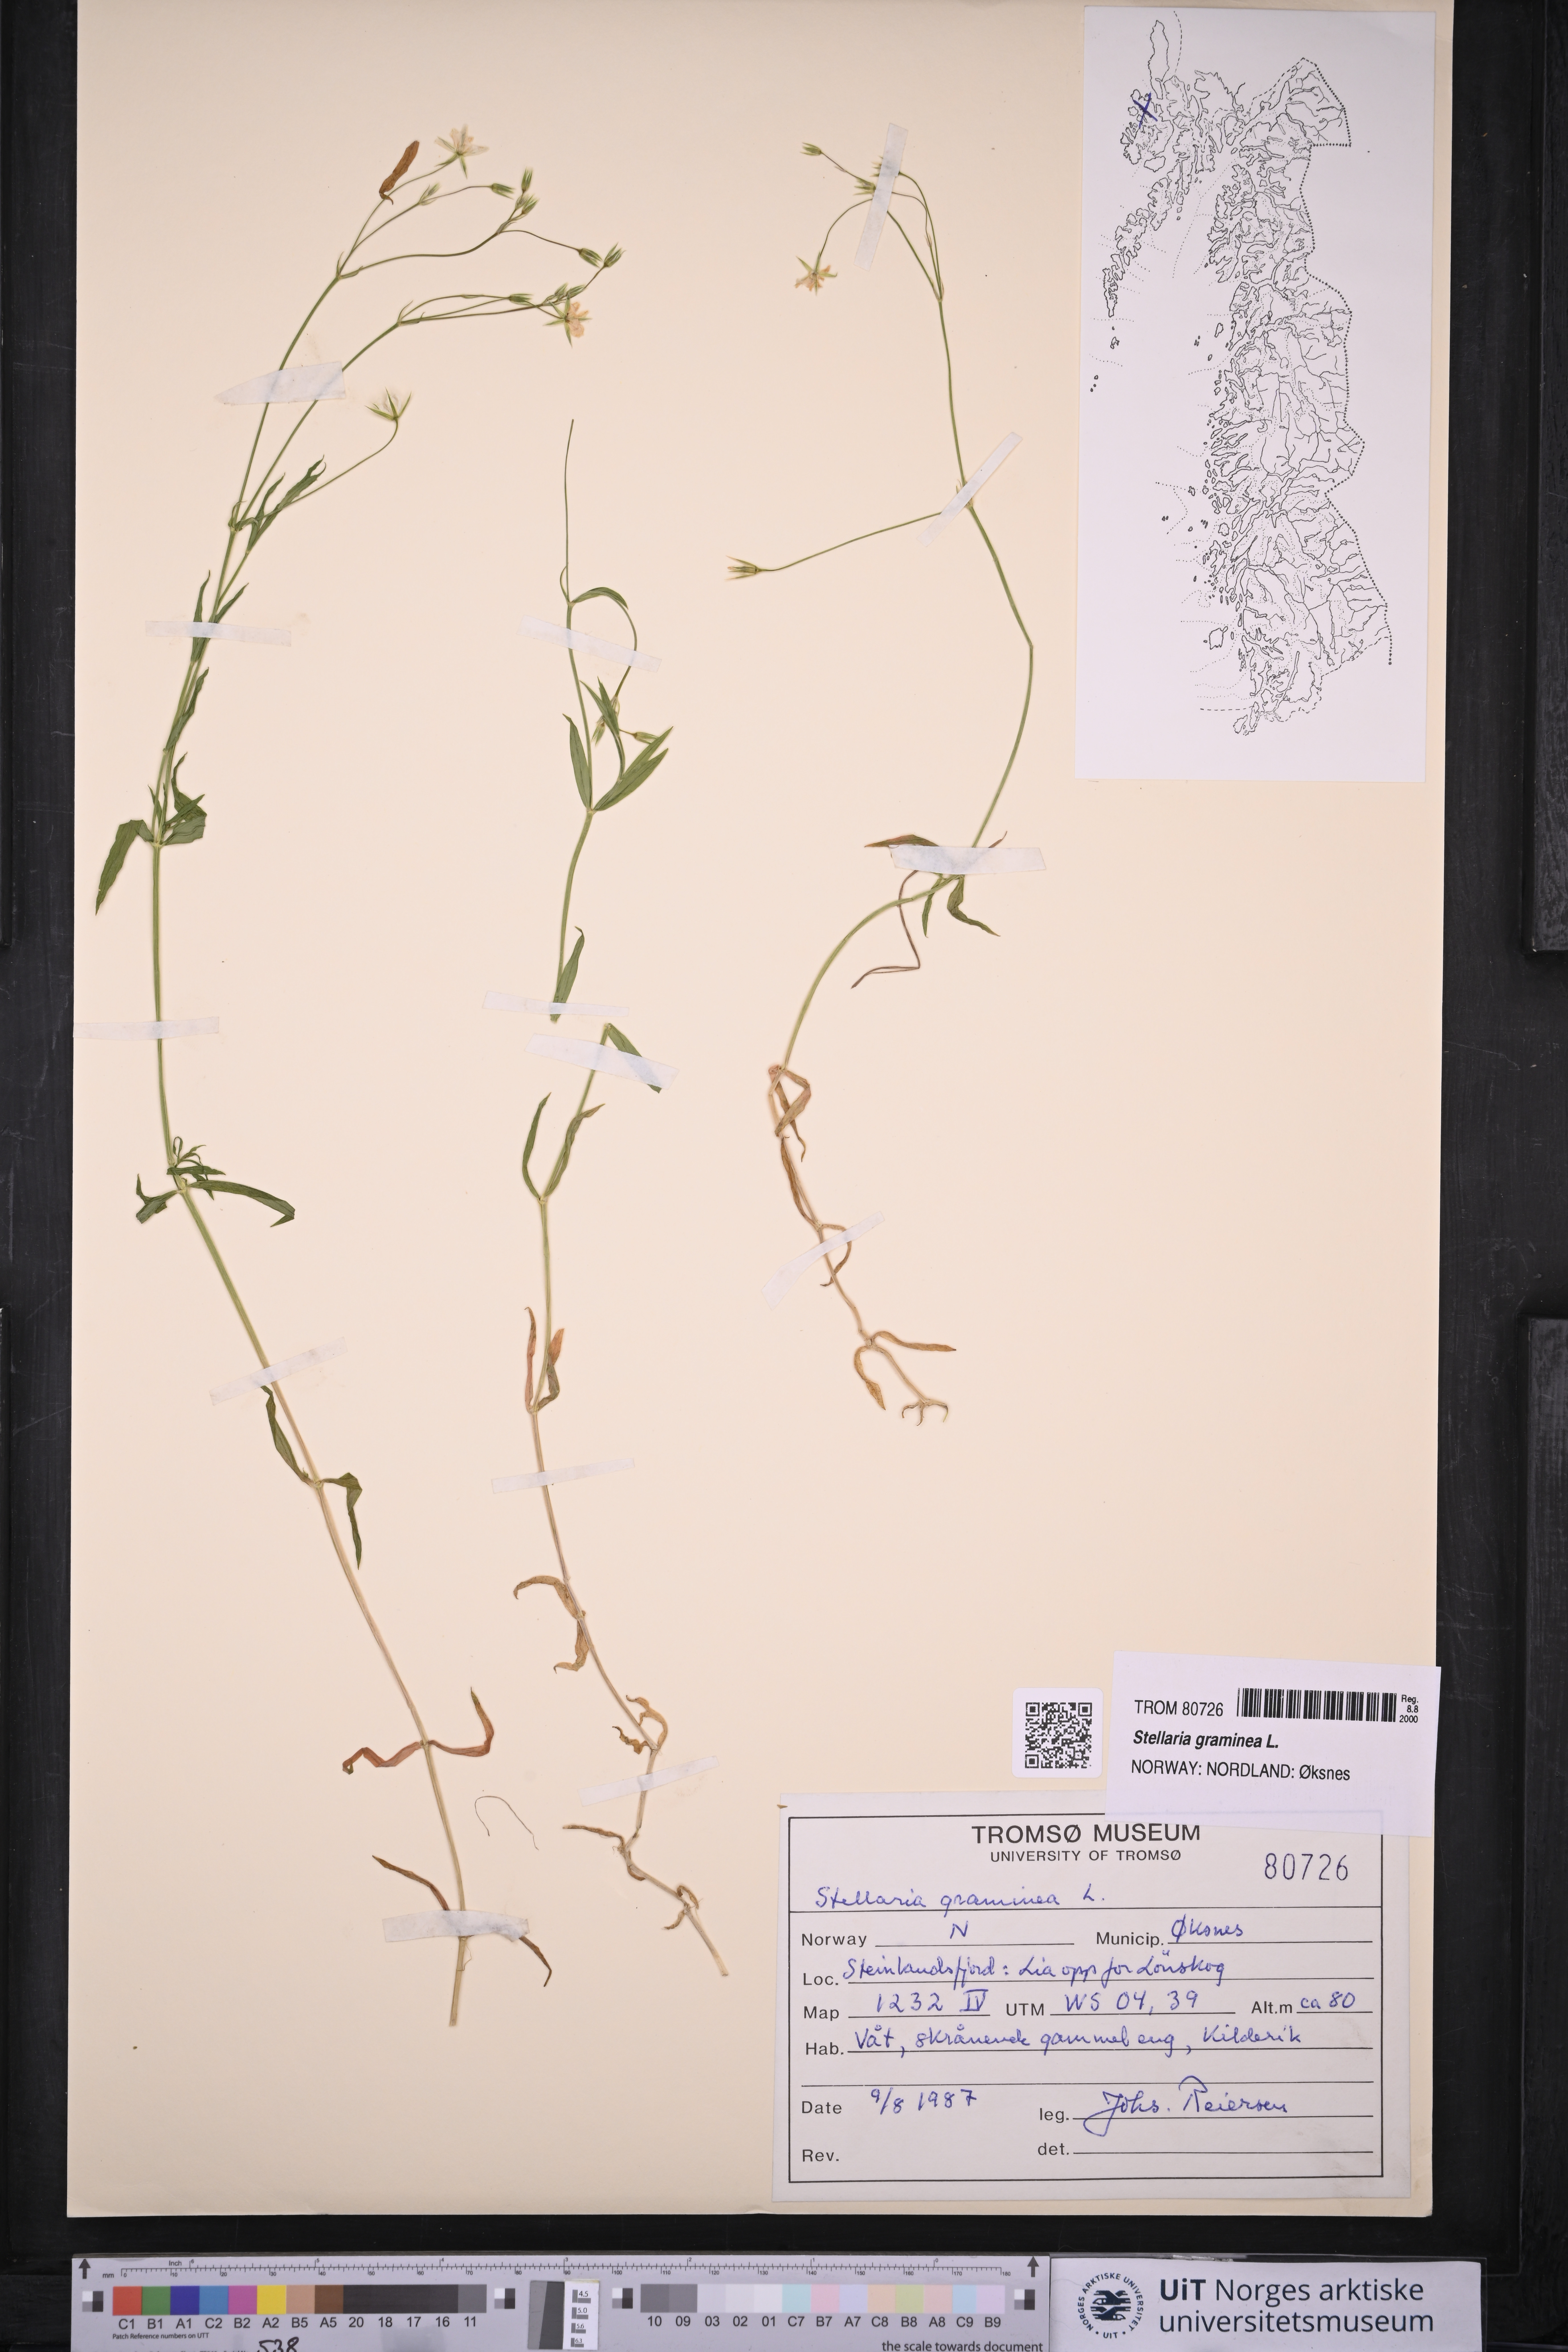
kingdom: Plantae
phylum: Tracheophyta
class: Magnoliopsida
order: Caryophyllales
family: Caryophyllaceae
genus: Stellaria
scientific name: Stellaria graminea
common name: Grass-like starwort
